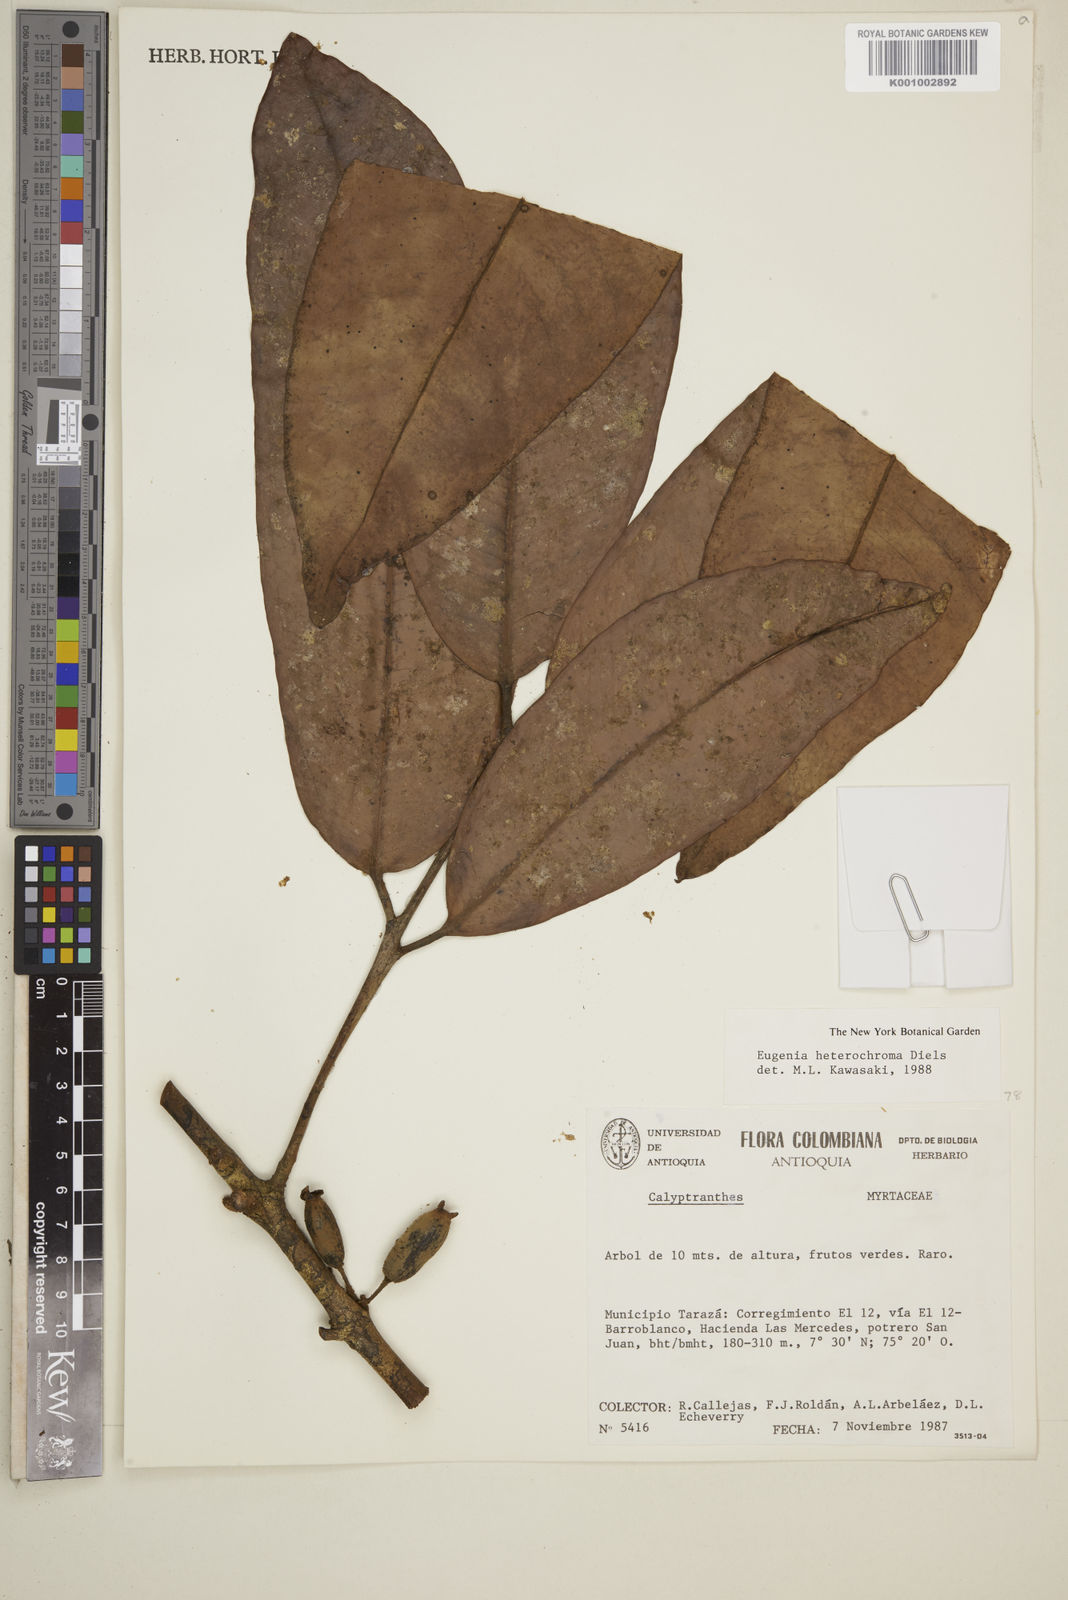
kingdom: Plantae
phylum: Tracheophyta
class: Magnoliopsida
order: Myrtales
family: Myrtaceae
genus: Eugenia
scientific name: Eugenia heterochroma
